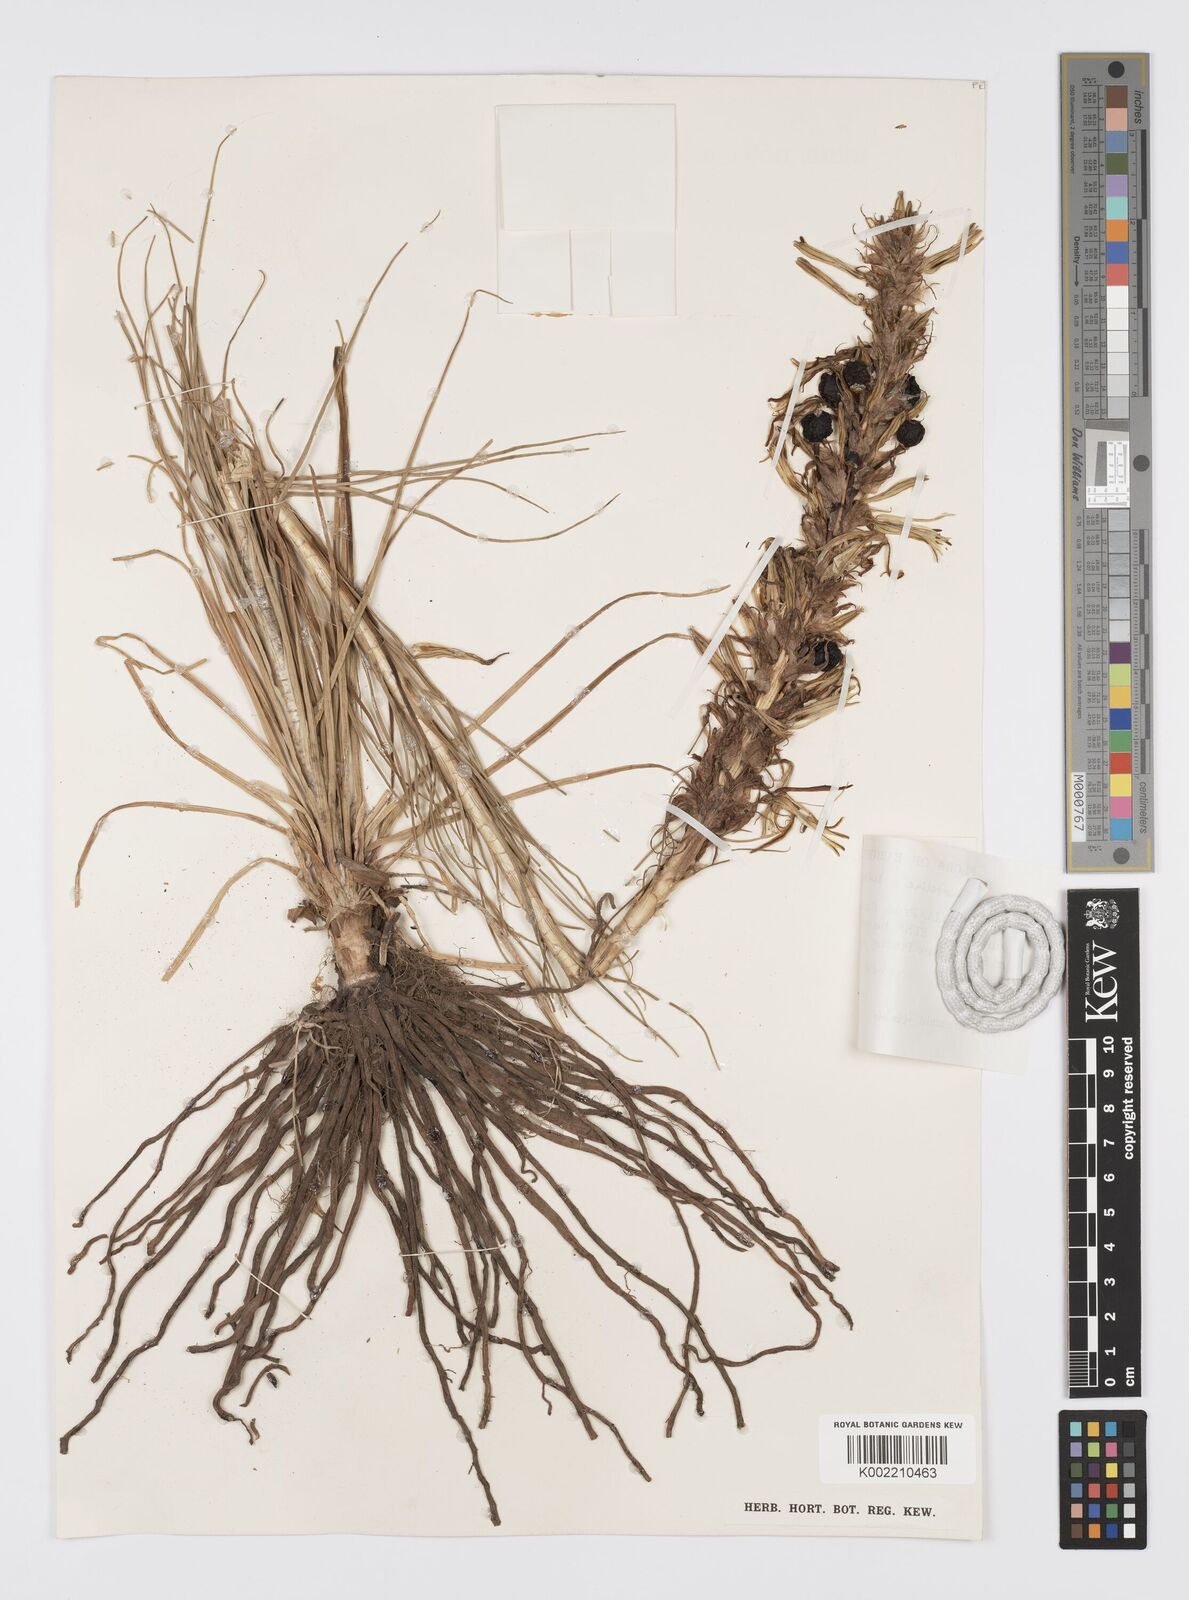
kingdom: Plantae
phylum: Tracheophyta
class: Liliopsida
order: Asparagales
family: Asphodelaceae
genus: Asphodeline
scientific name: Asphodeline lutea
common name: Yellow asphodel
